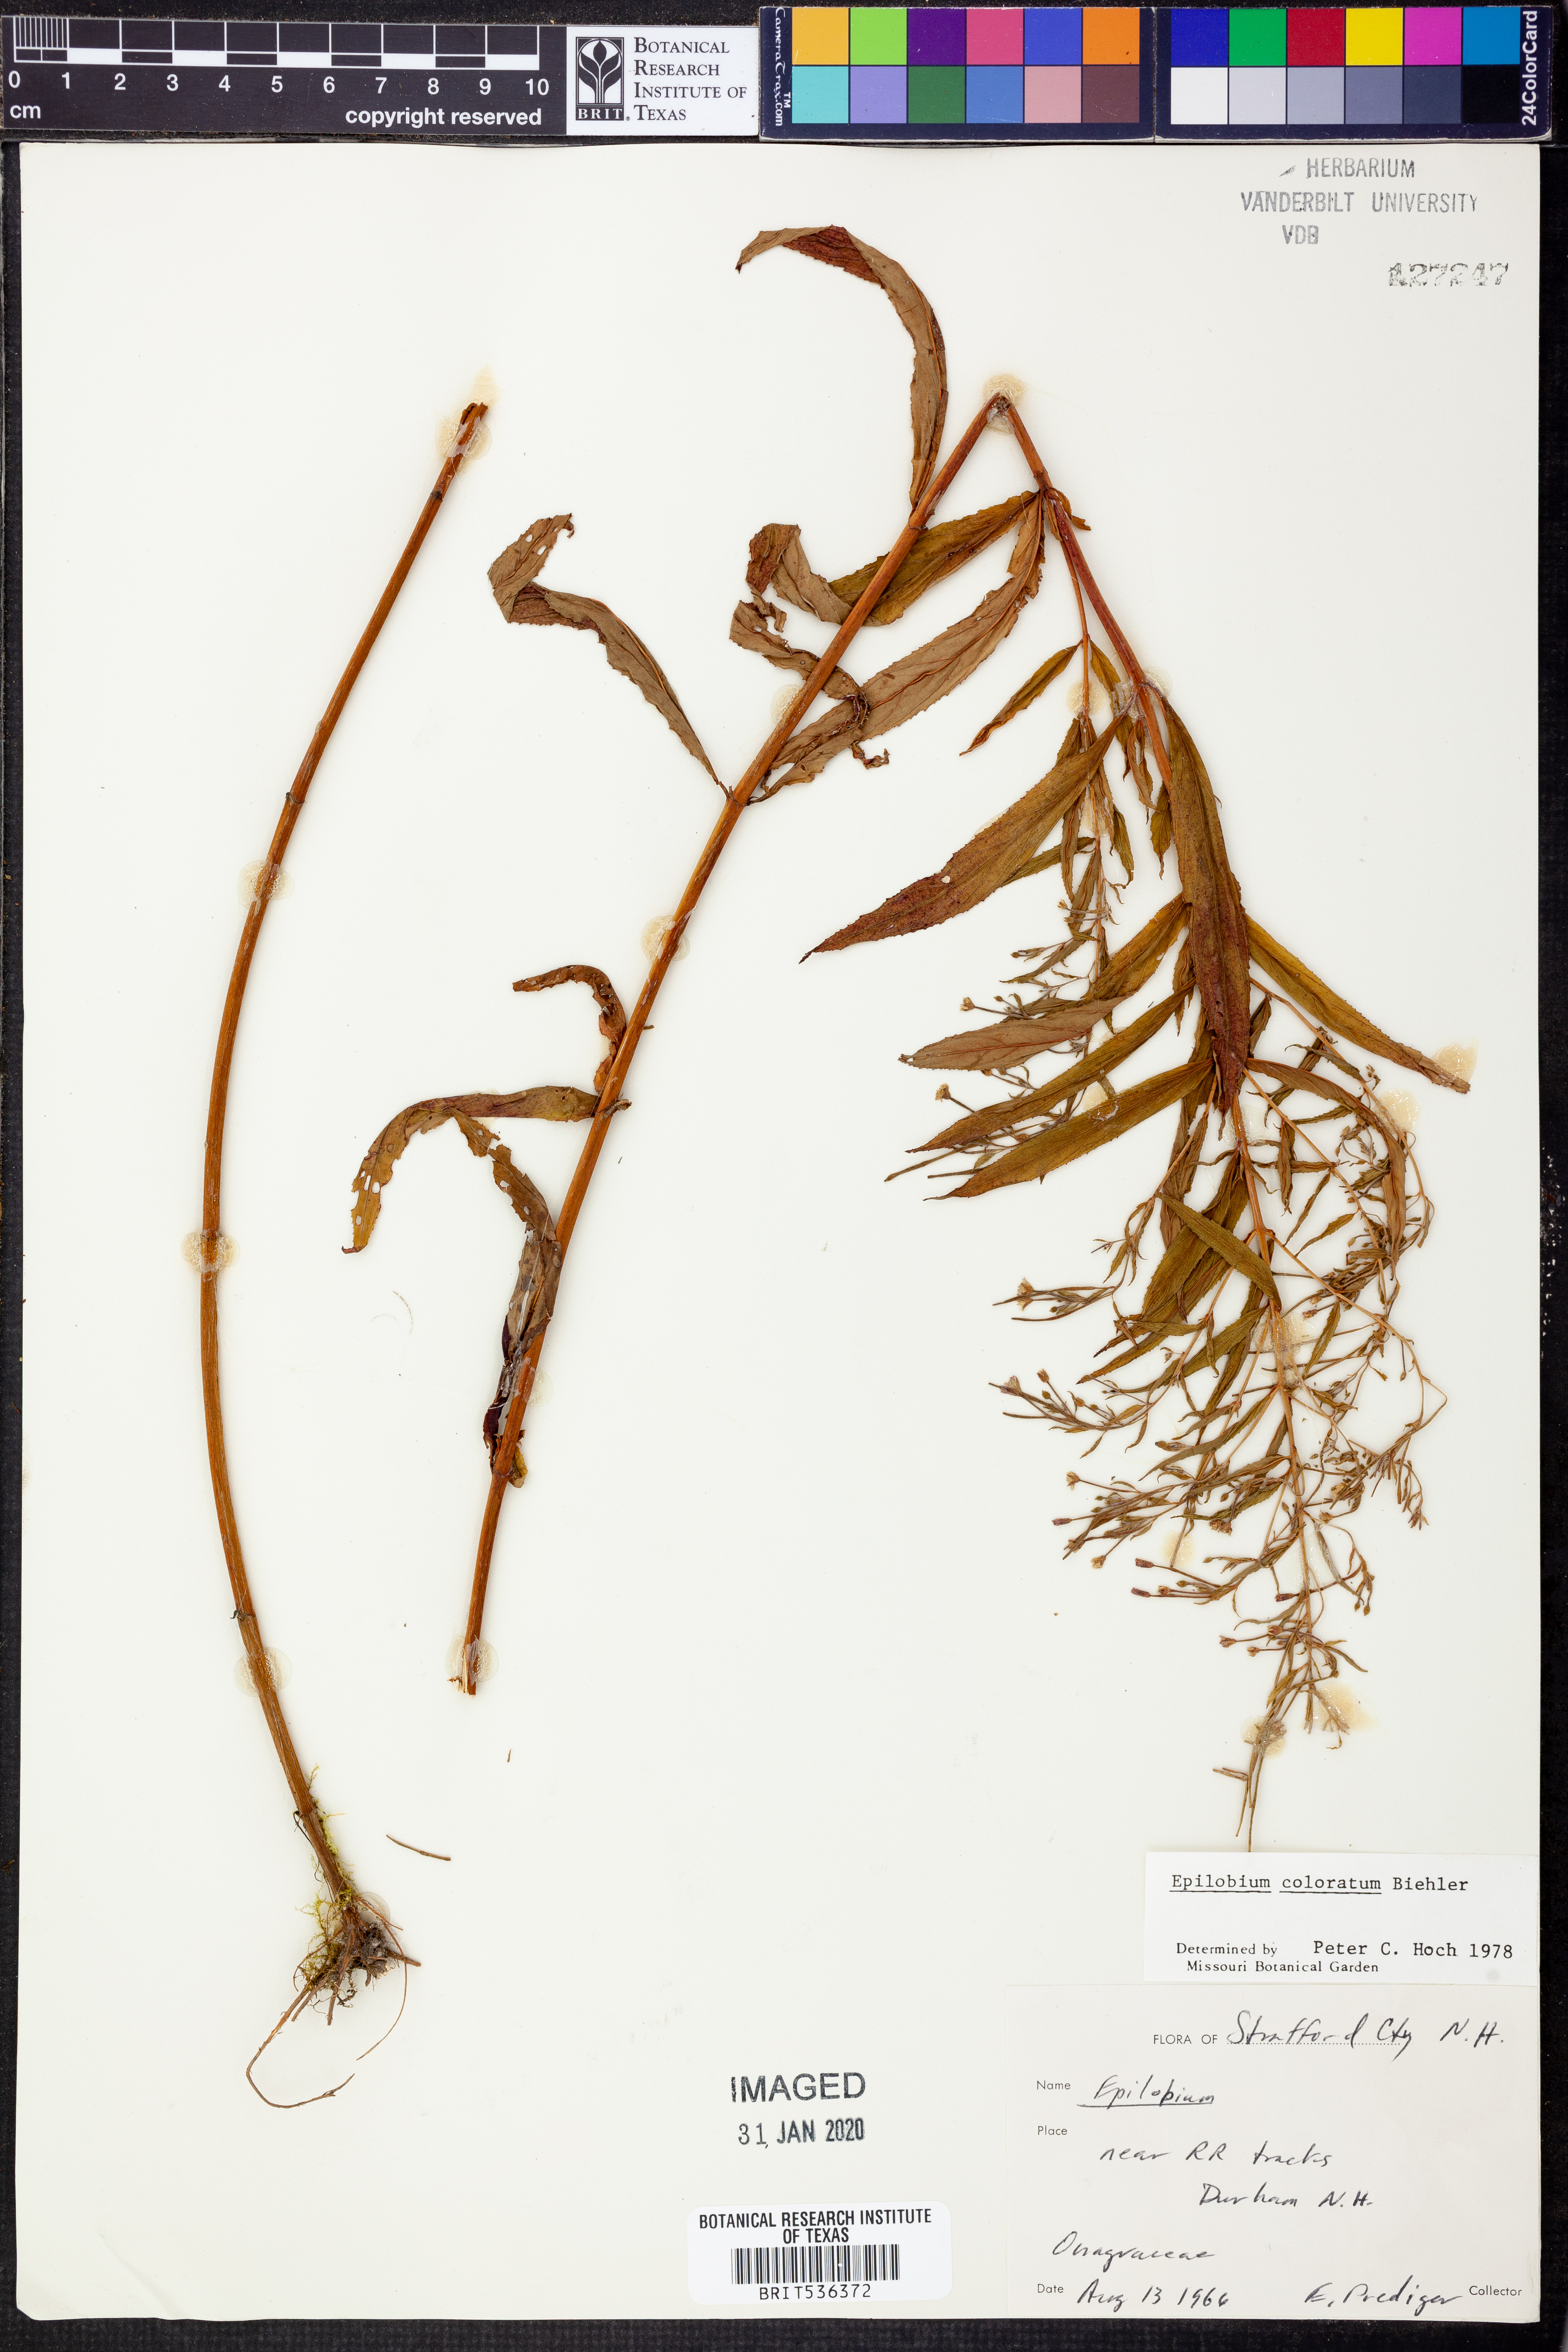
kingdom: Plantae
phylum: Tracheophyta
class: Magnoliopsida
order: Myrtales
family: Onagraceae
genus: Epilobium
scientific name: Epilobium coloratum
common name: Bronze willowherb
